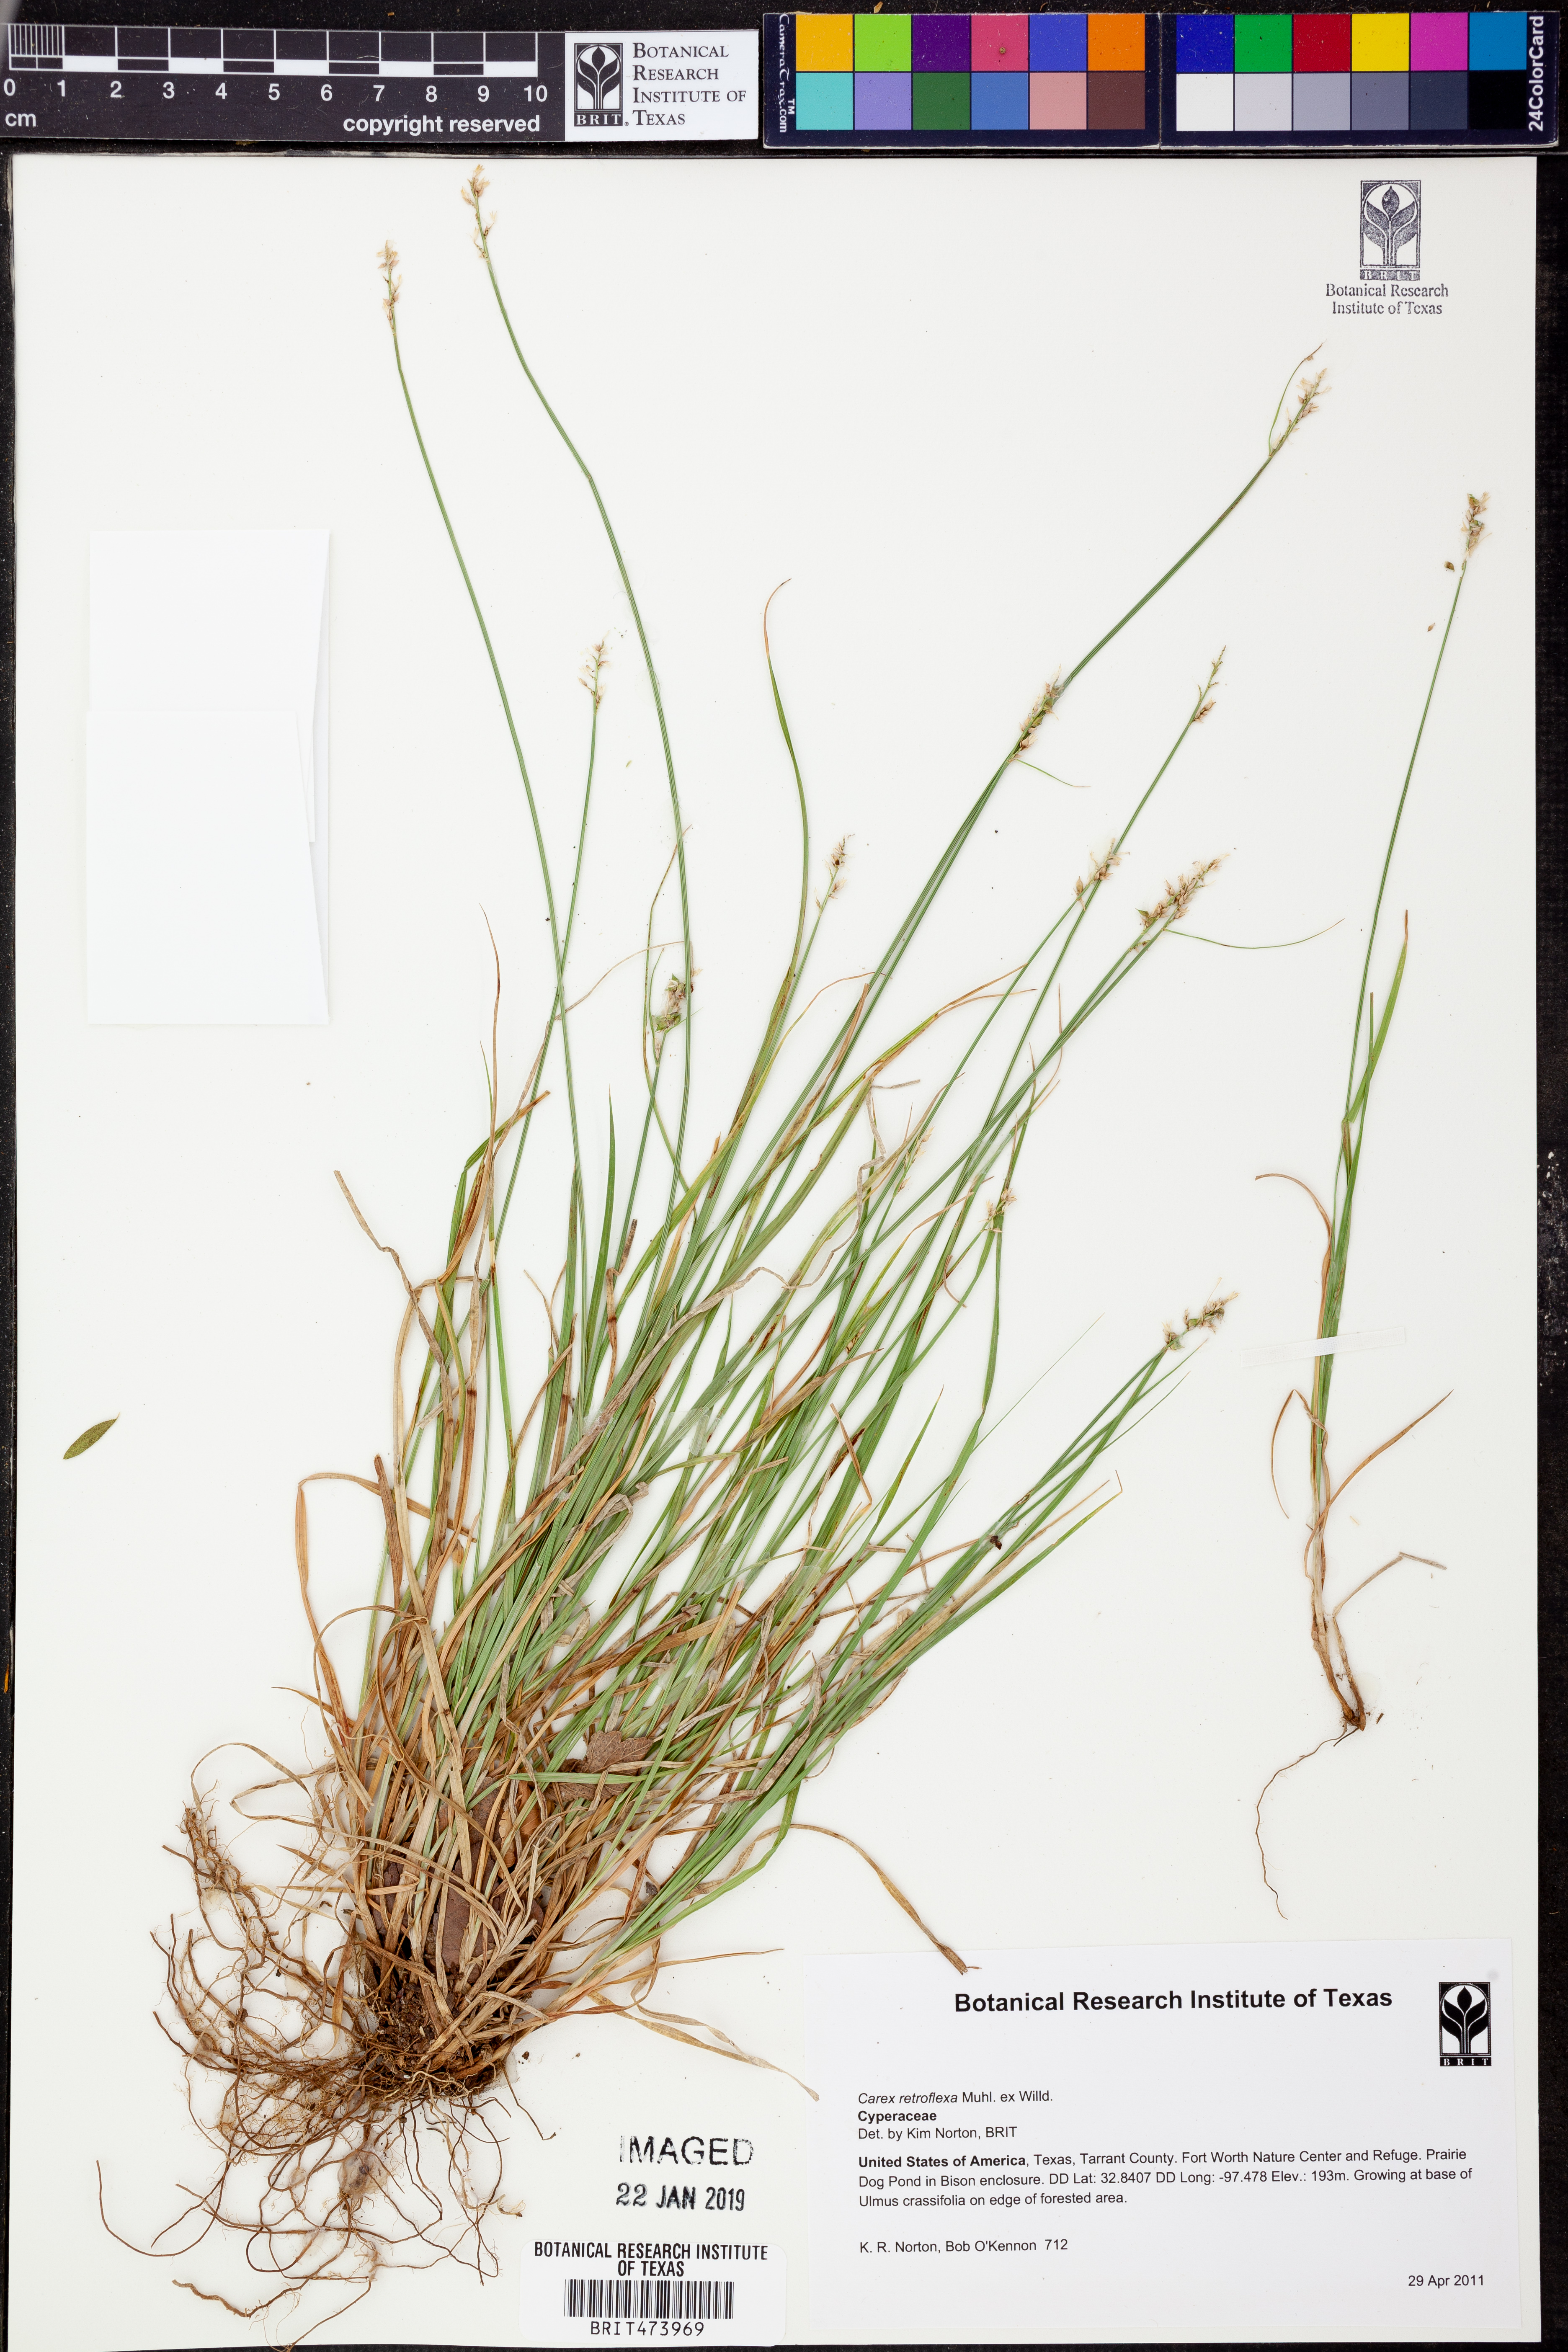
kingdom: Plantae
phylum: Tracheophyta
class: Liliopsida
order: Poales
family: Cyperaceae
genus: Carex
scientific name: Carex retroflexa
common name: Reflexed sedge
